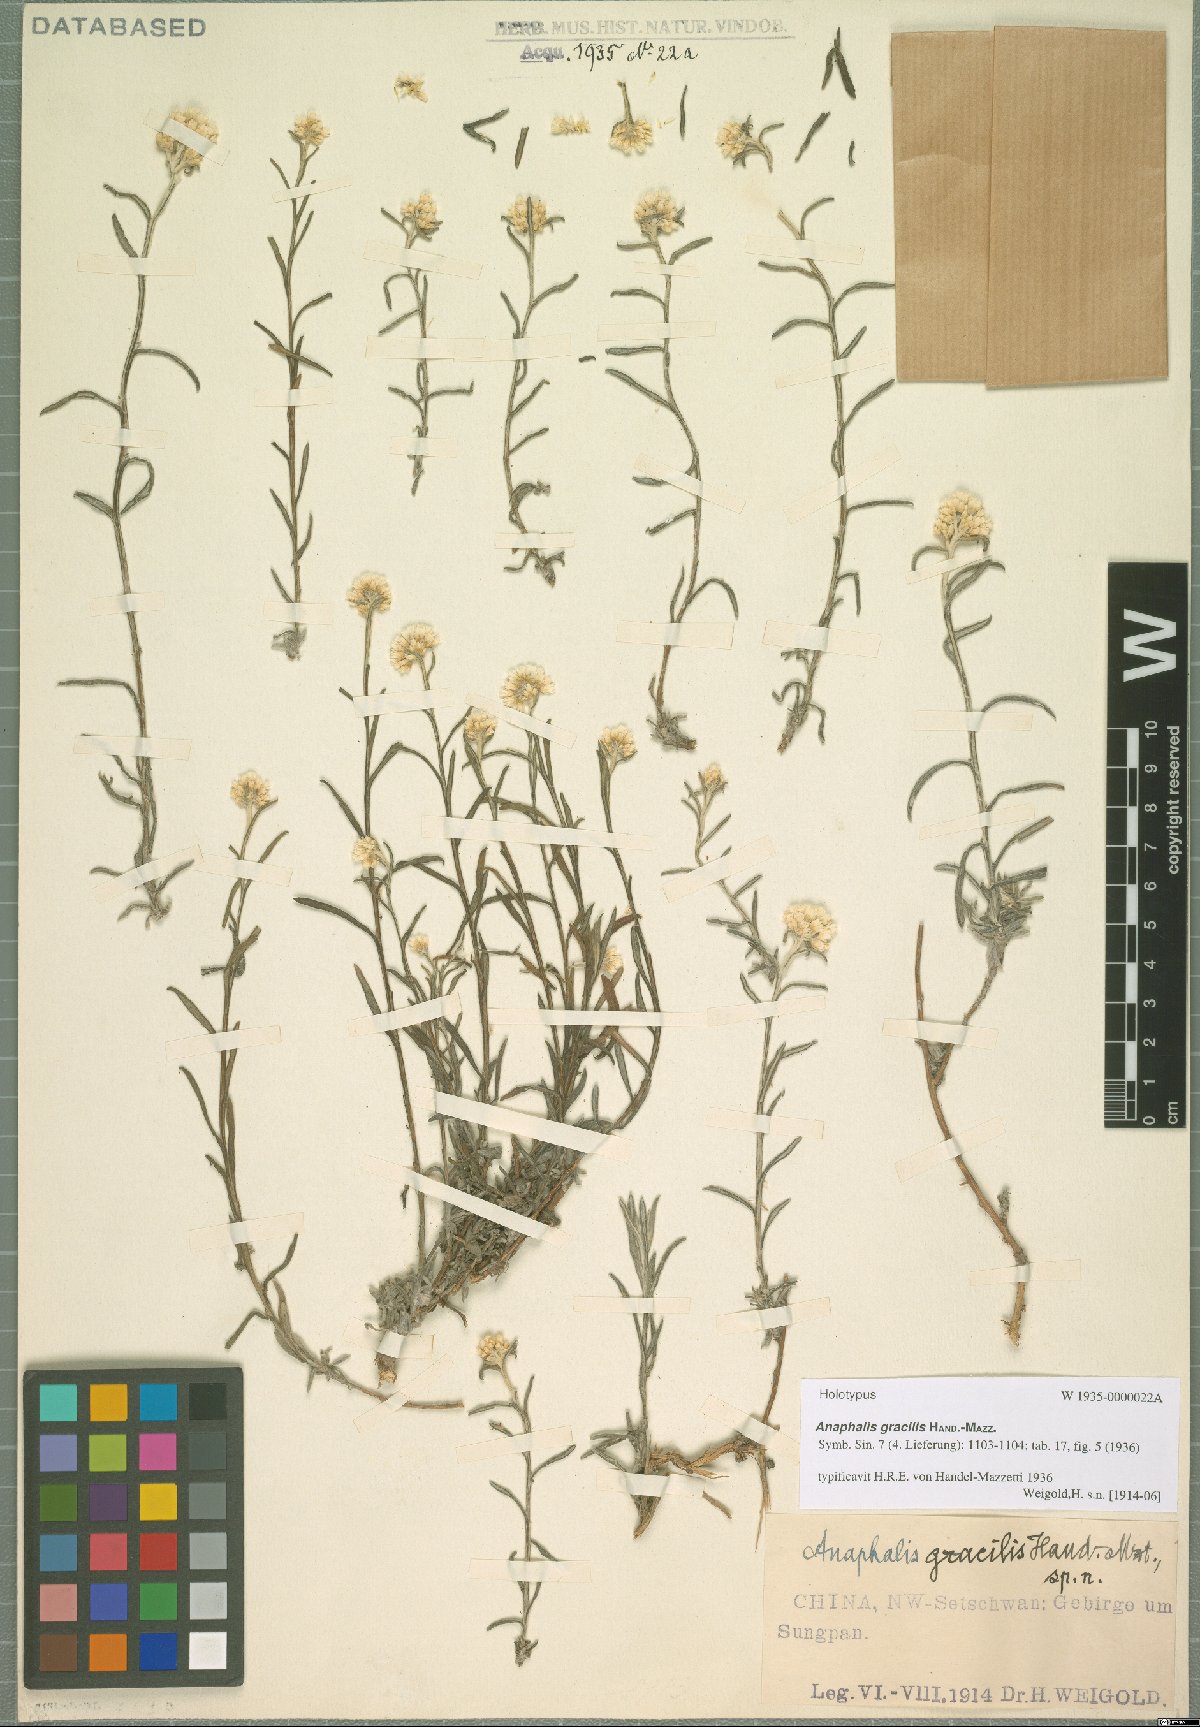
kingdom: Plantae
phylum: Tracheophyta
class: Magnoliopsida
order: Asterales
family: Asteraceae
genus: Anaphalis
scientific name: Anaphalis gracilis
